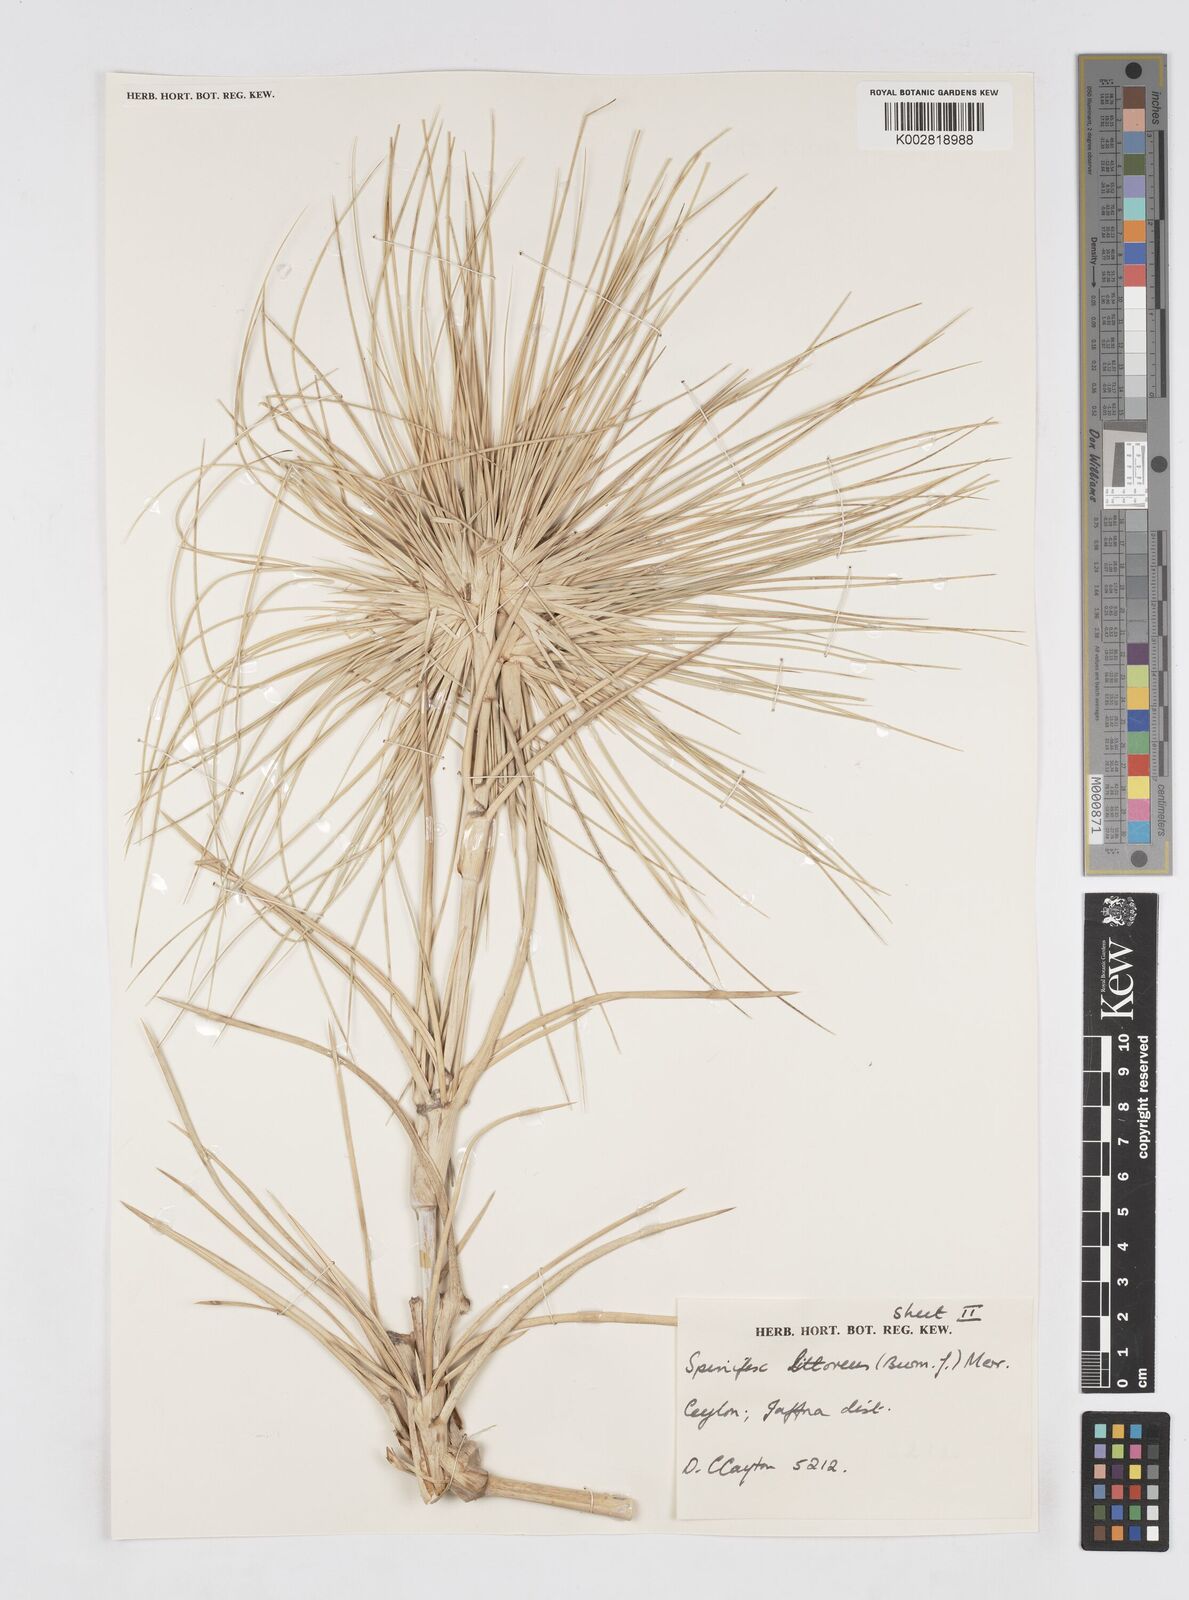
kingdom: Plantae
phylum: Tracheophyta
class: Liliopsida
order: Poales
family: Poaceae
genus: Spinifex
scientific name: Spinifex littoreus
